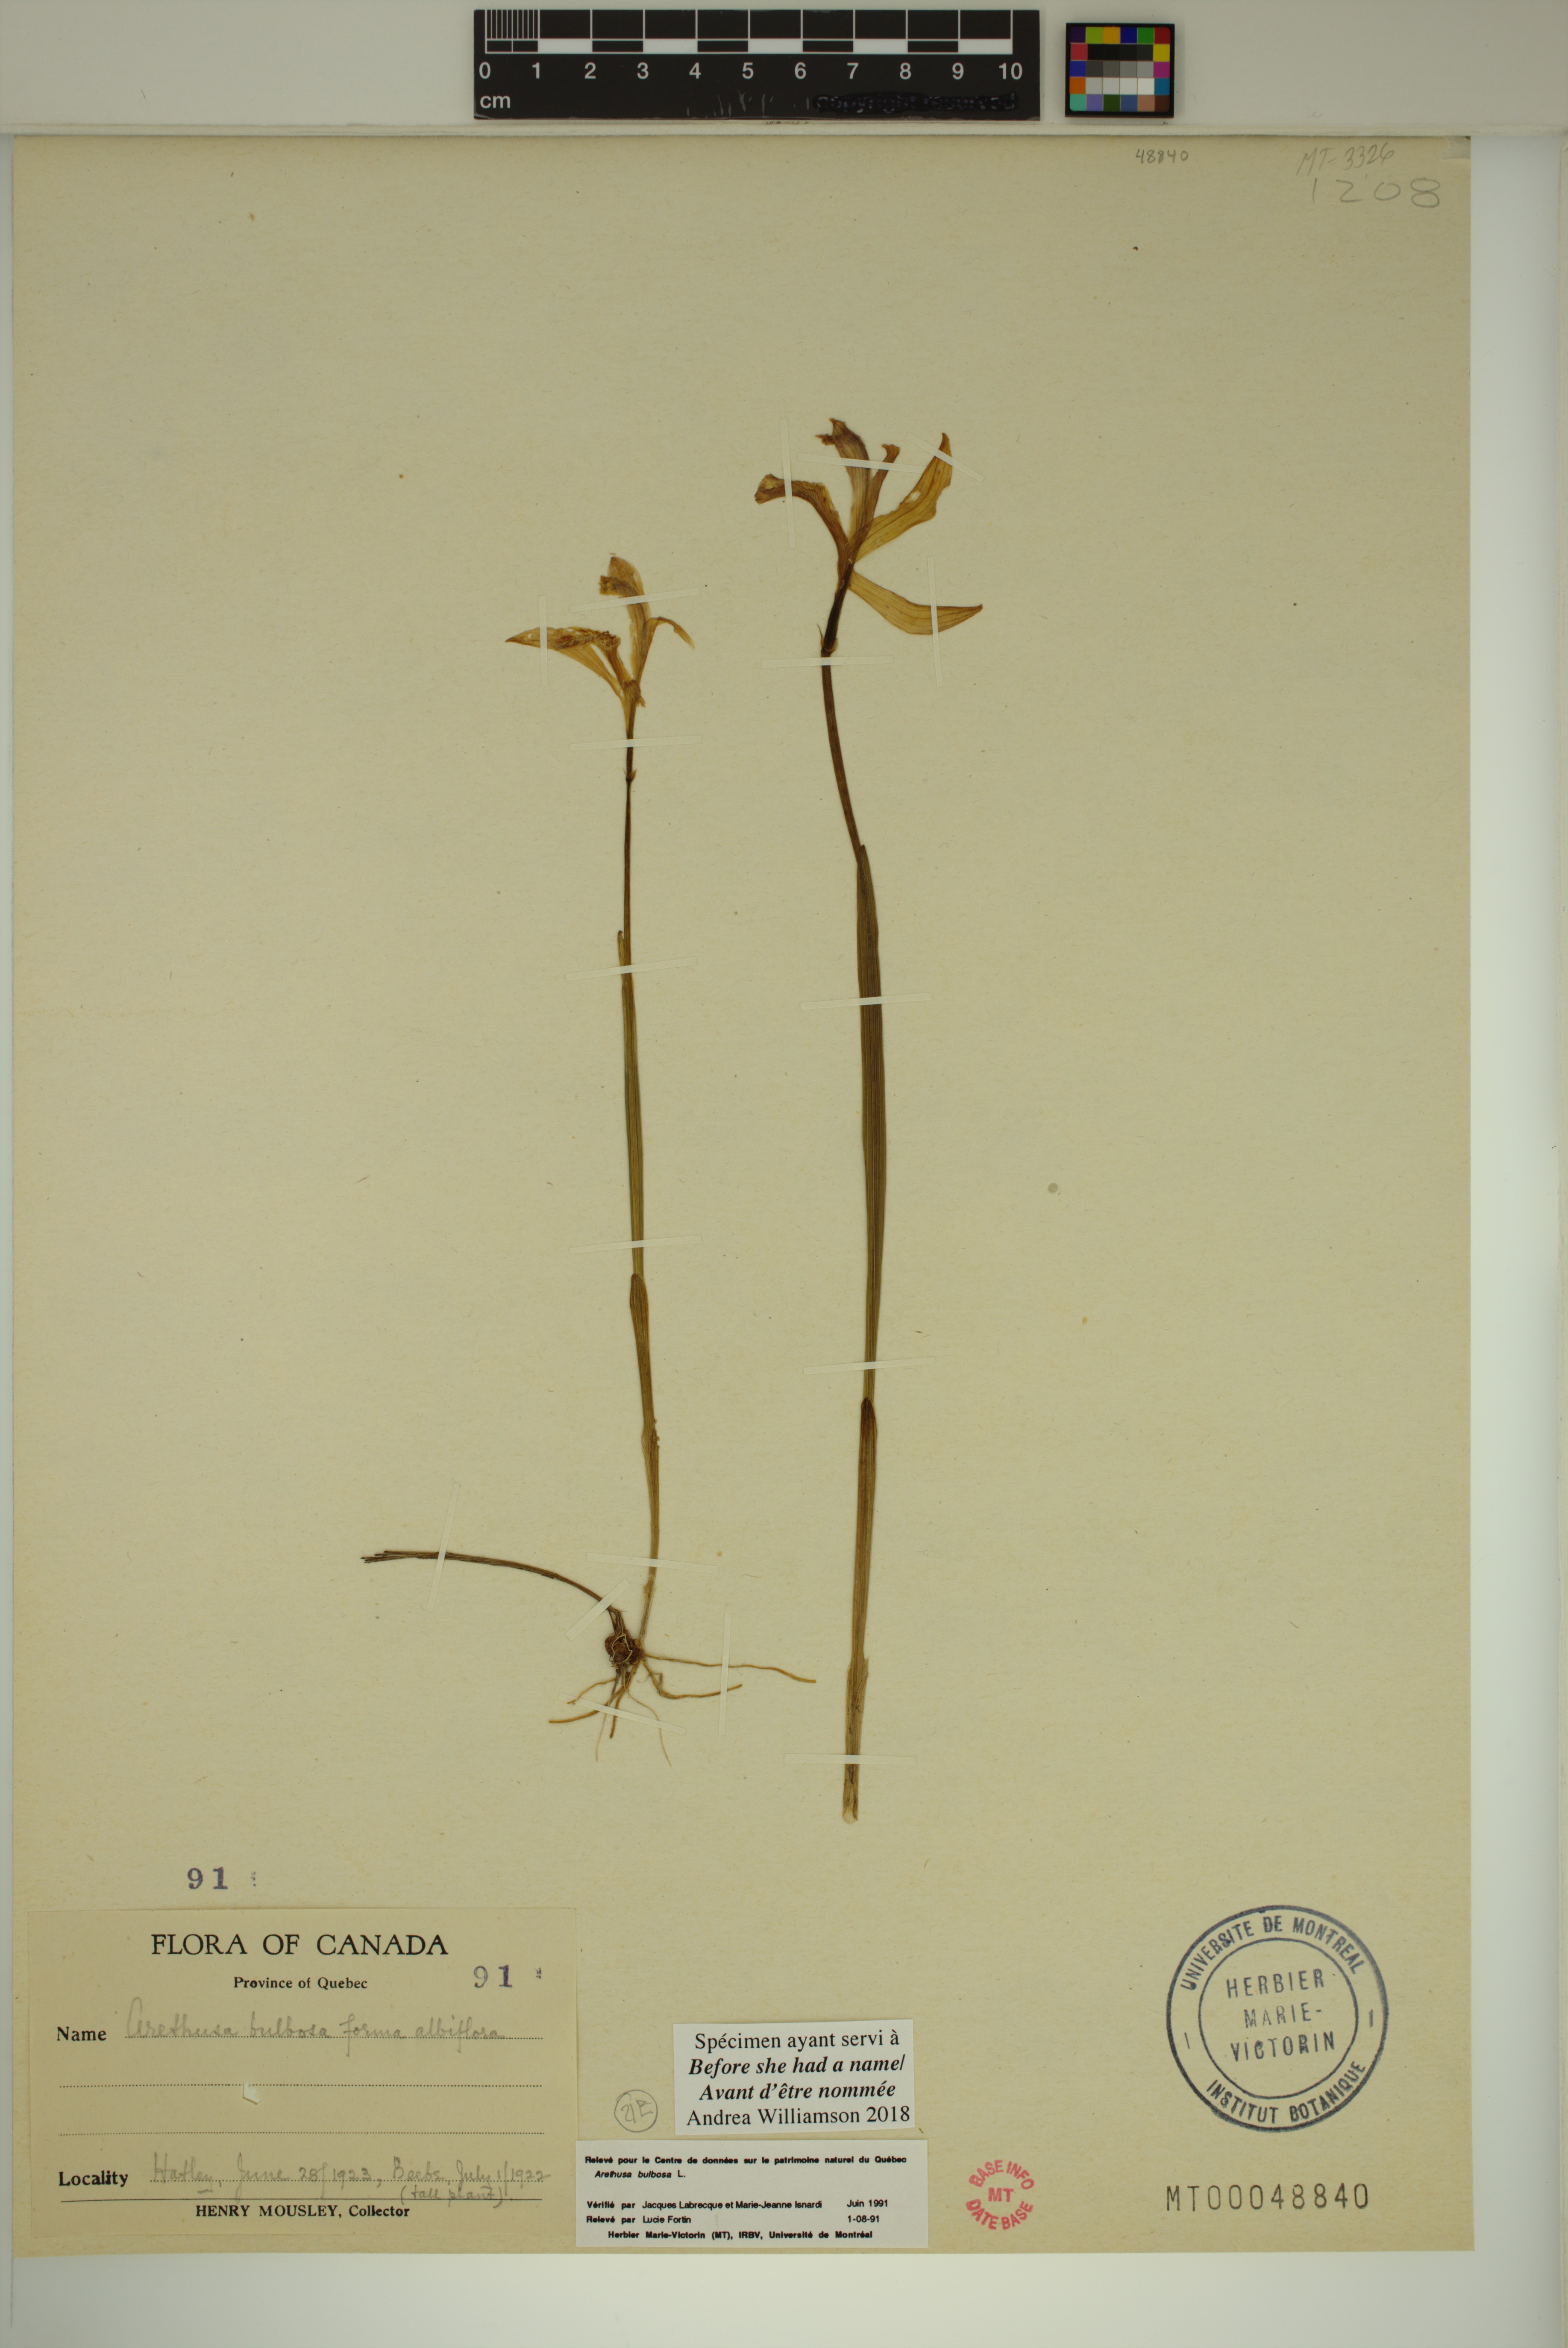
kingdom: Plantae
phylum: Tracheophyta
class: Liliopsida
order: Asparagales
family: Orchidaceae
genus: Arethusa
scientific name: Arethusa bulbosa
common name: Arethusa
